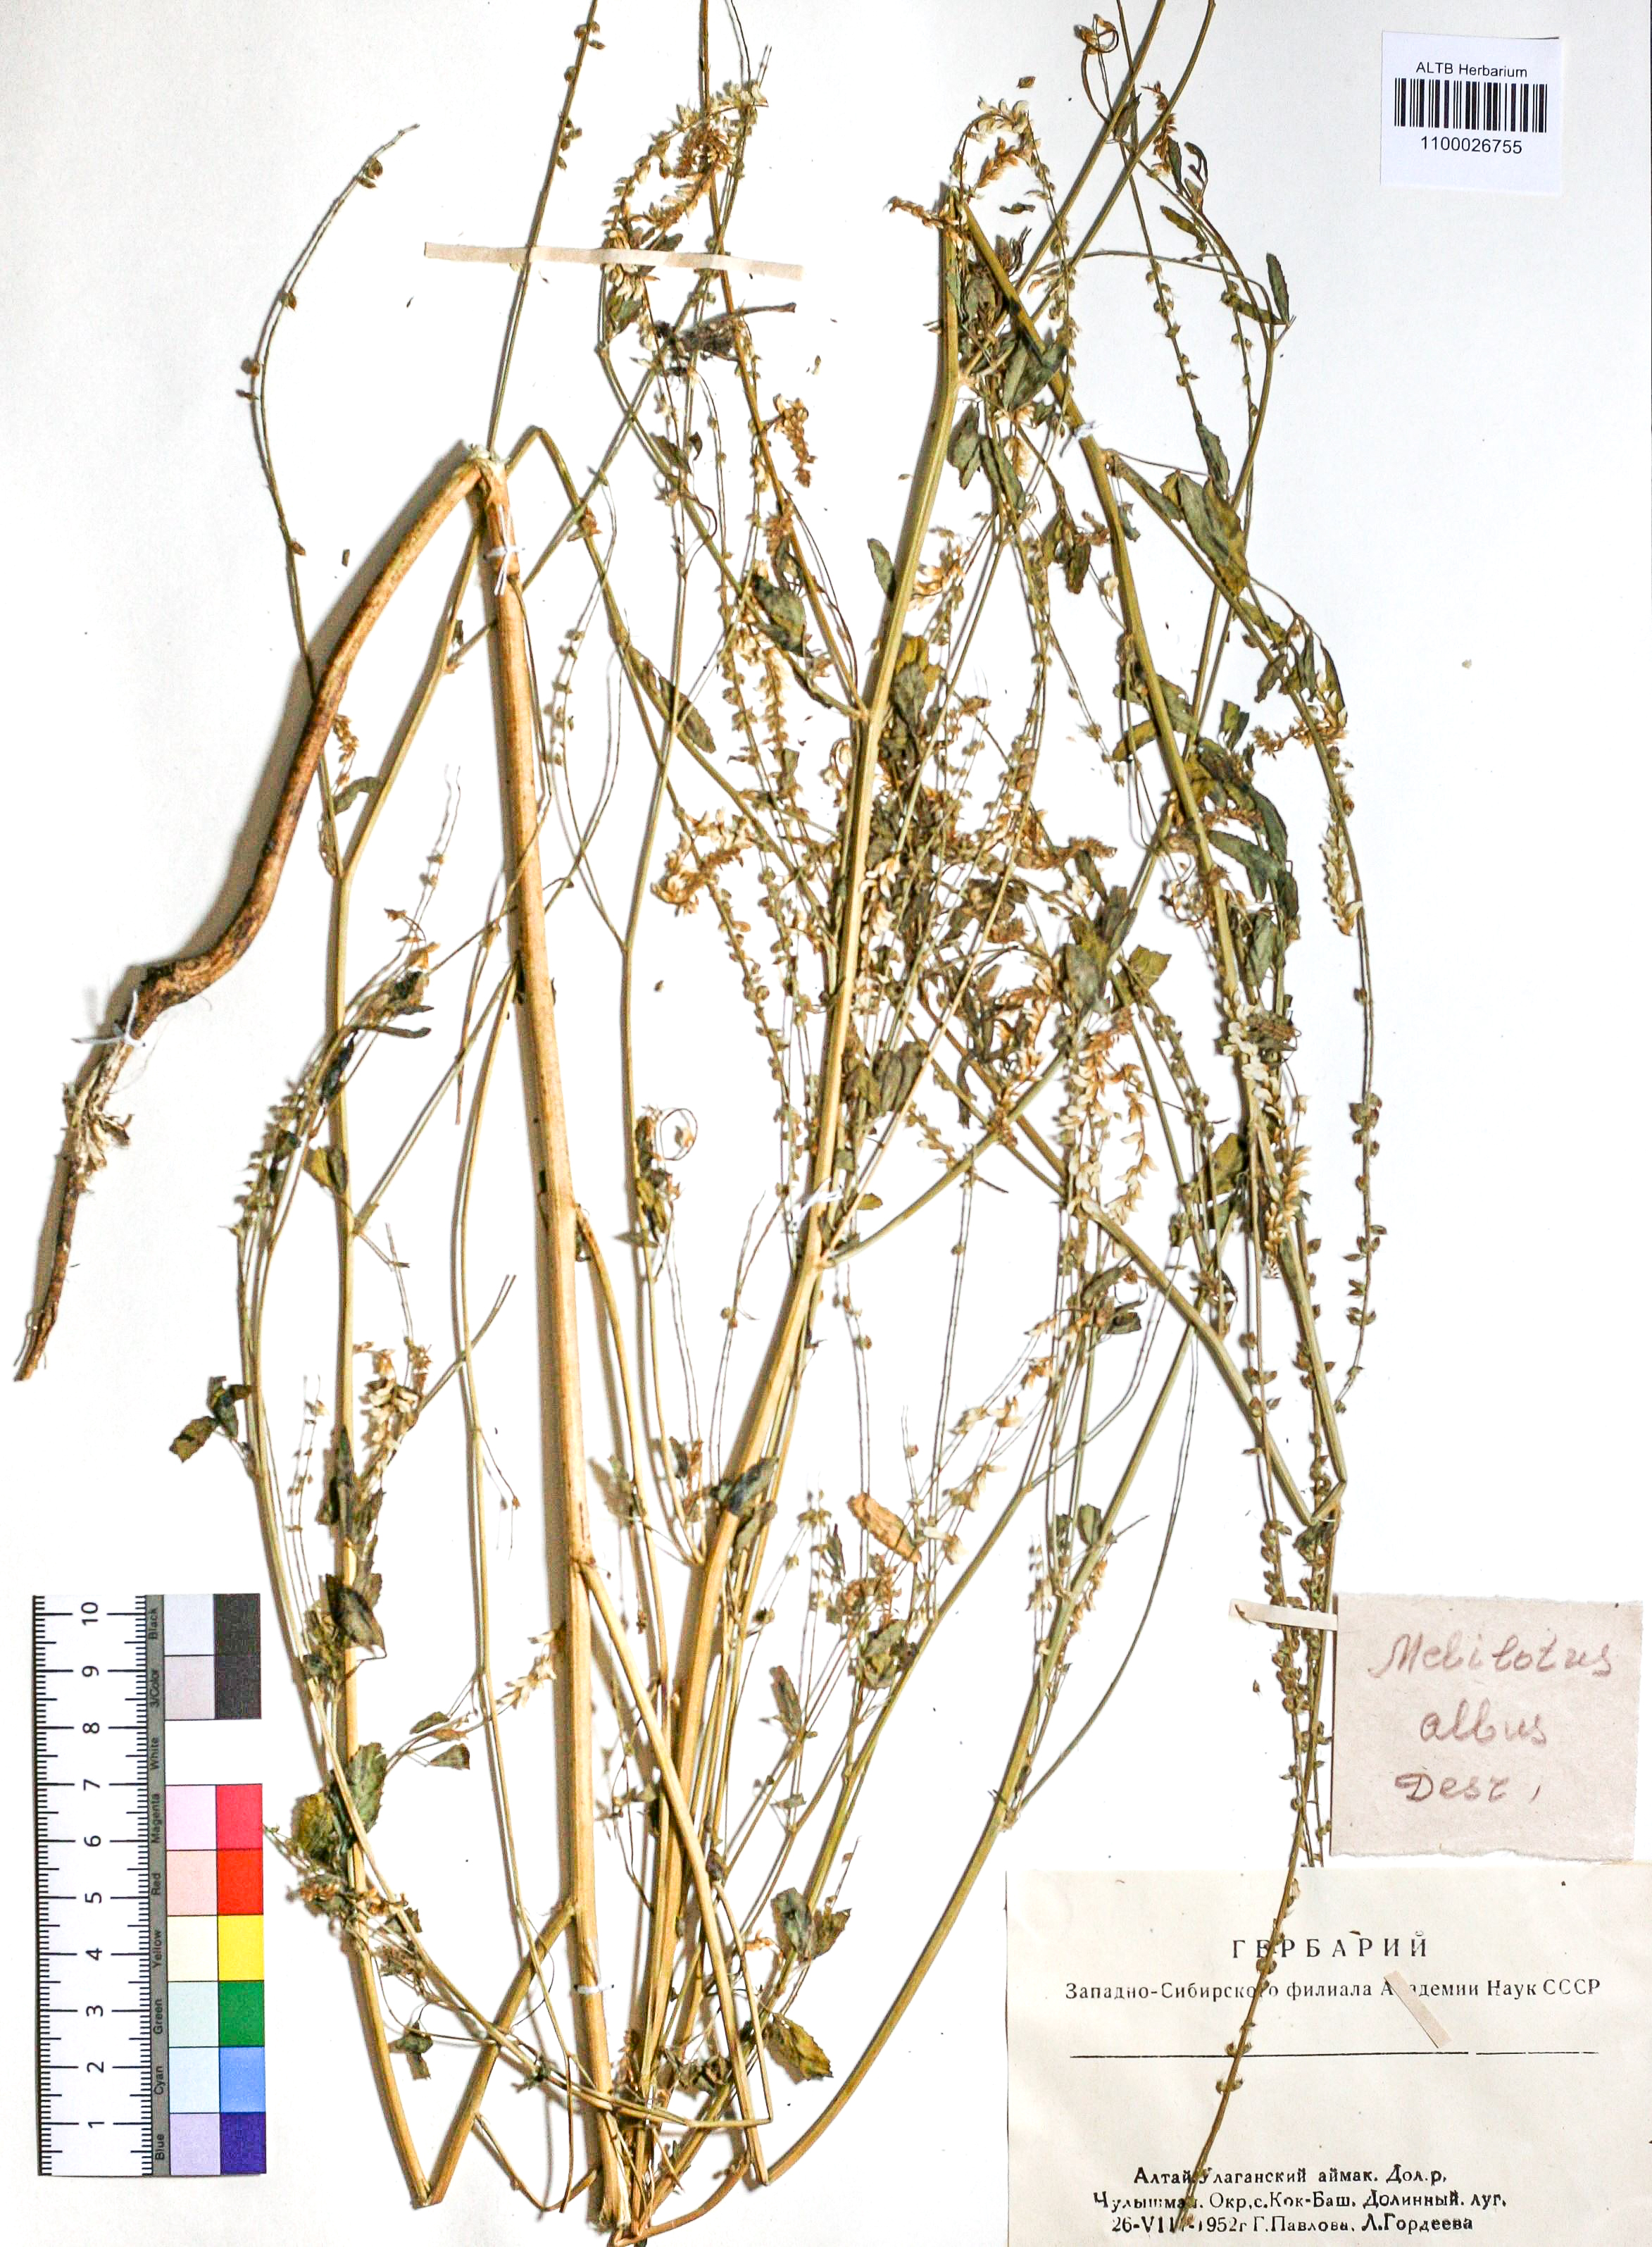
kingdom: Plantae
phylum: Tracheophyta
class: Magnoliopsida
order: Fabales
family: Fabaceae
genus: Melilotus
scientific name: Melilotus albus
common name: White melilot
